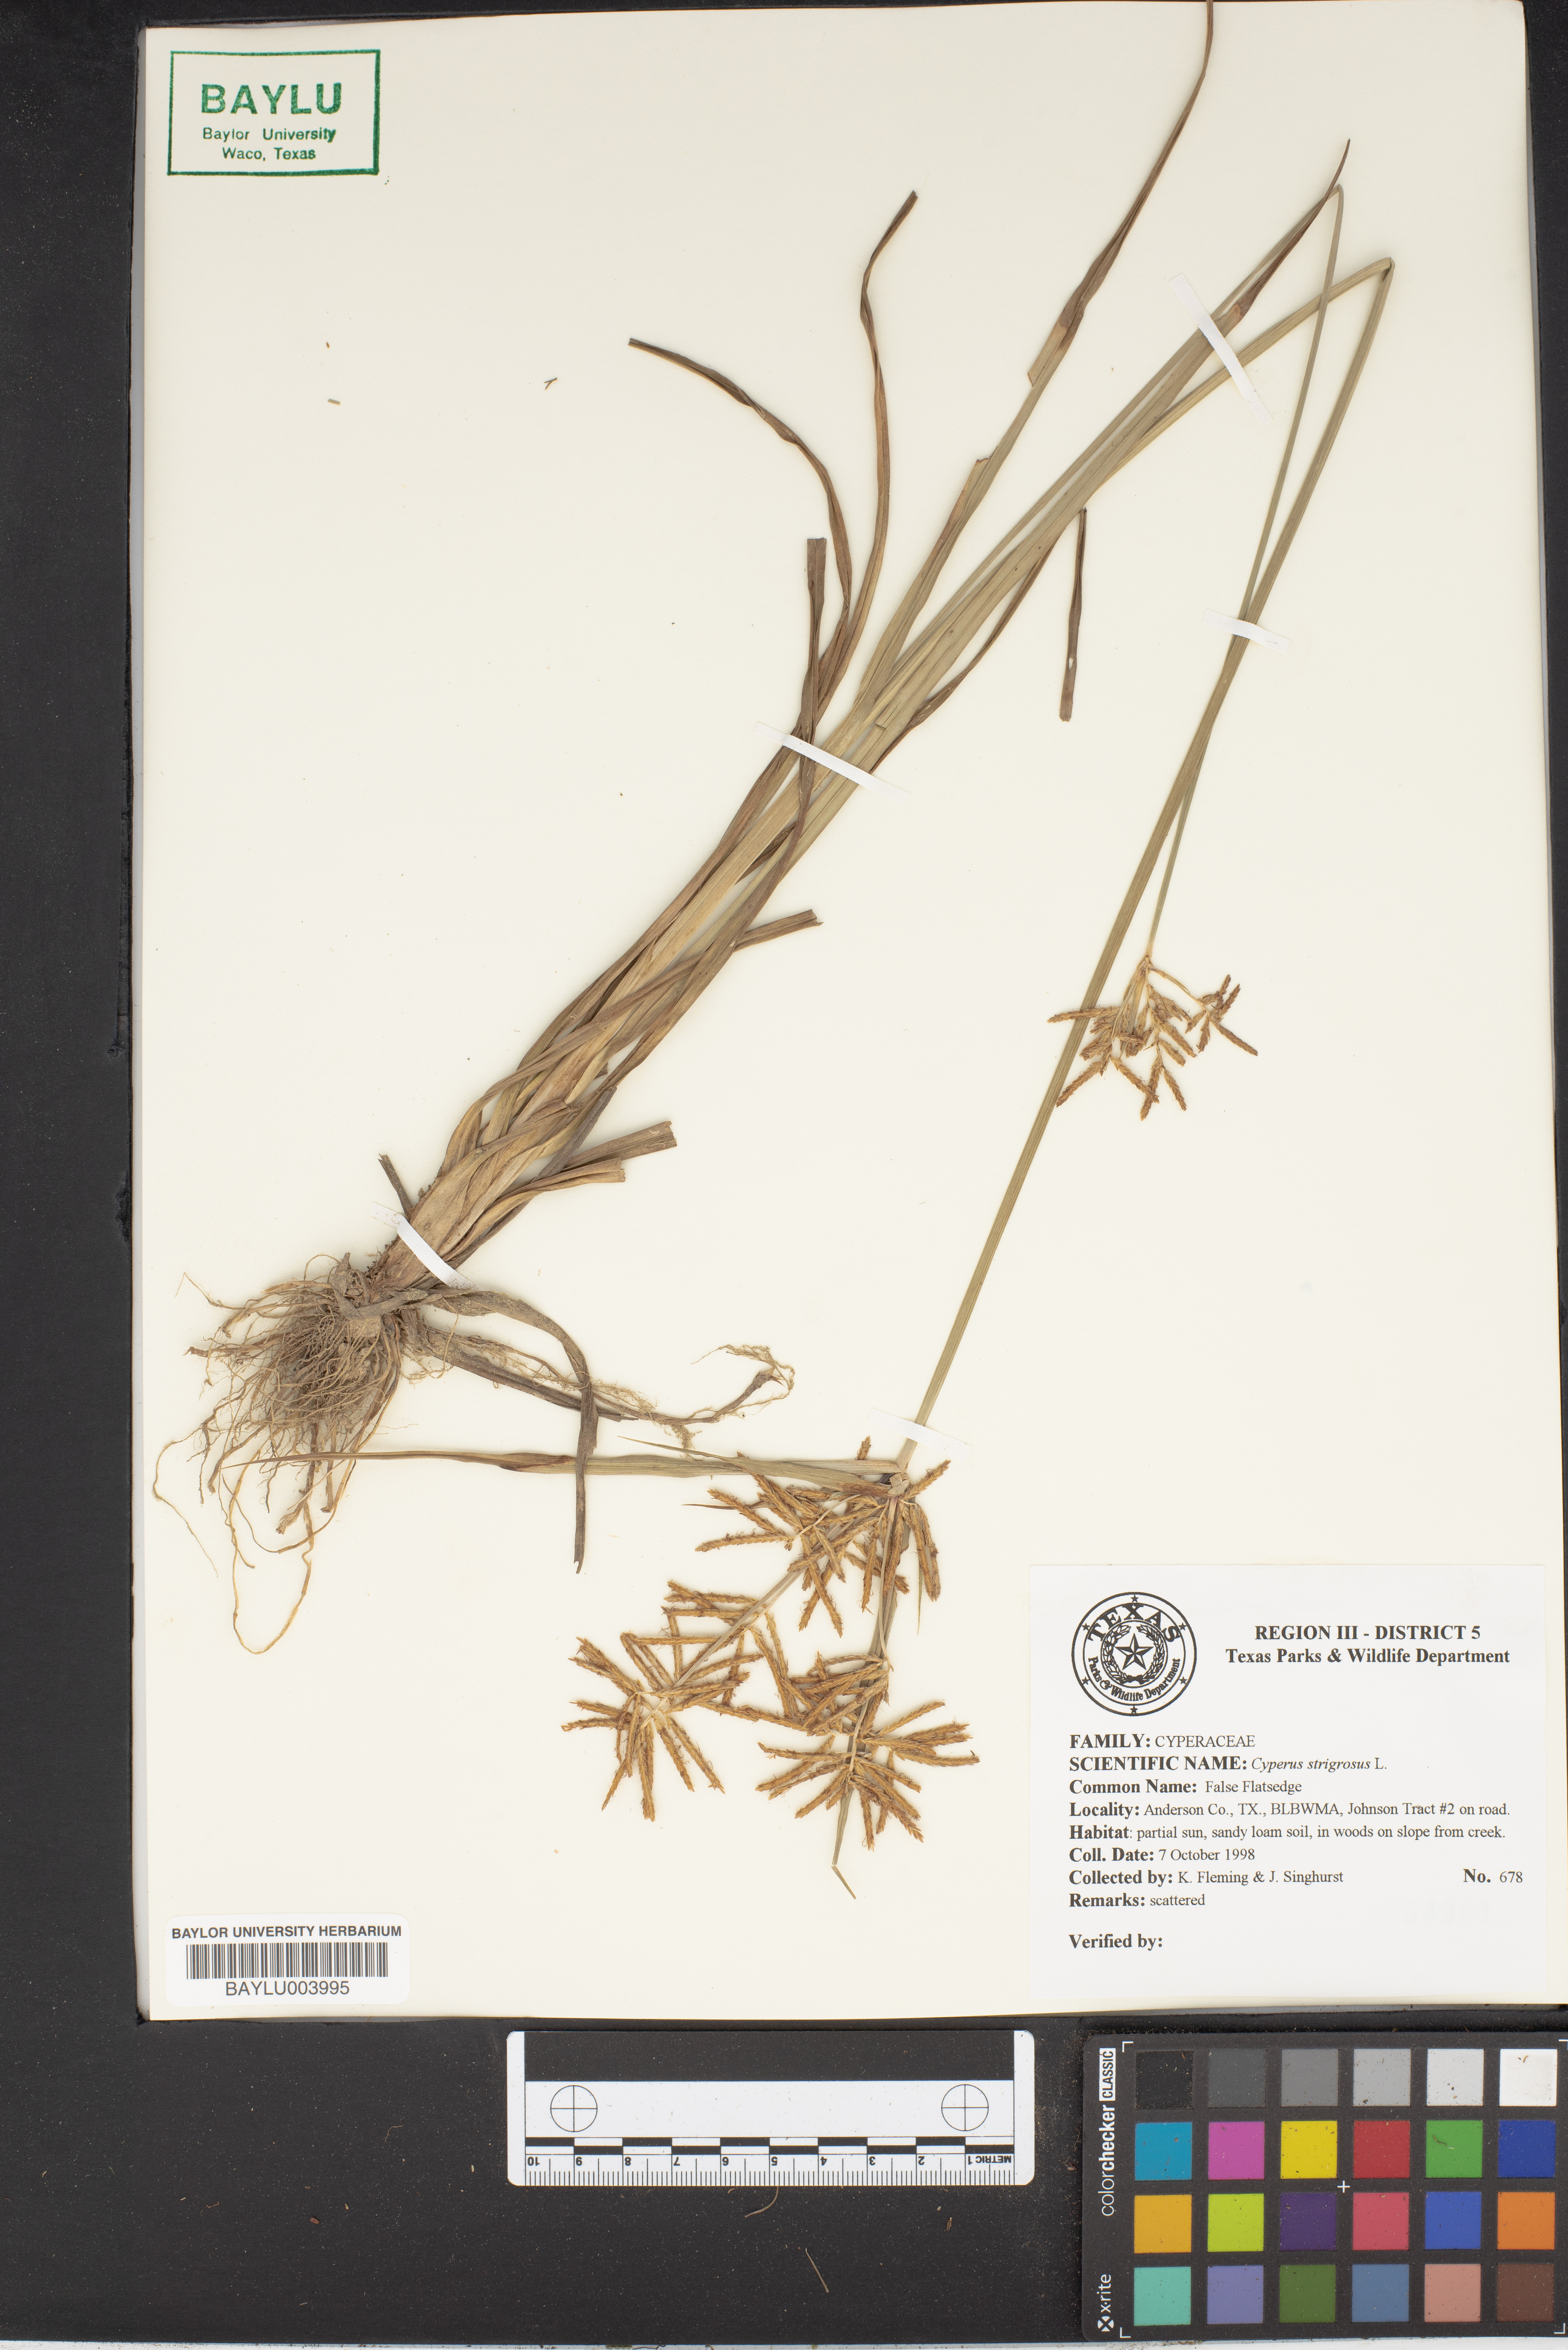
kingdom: Plantae
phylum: Tracheophyta
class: Liliopsida
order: Poales
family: Cyperaceae
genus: Cyperus
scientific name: Cyperus strigosus
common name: False nutsedge
